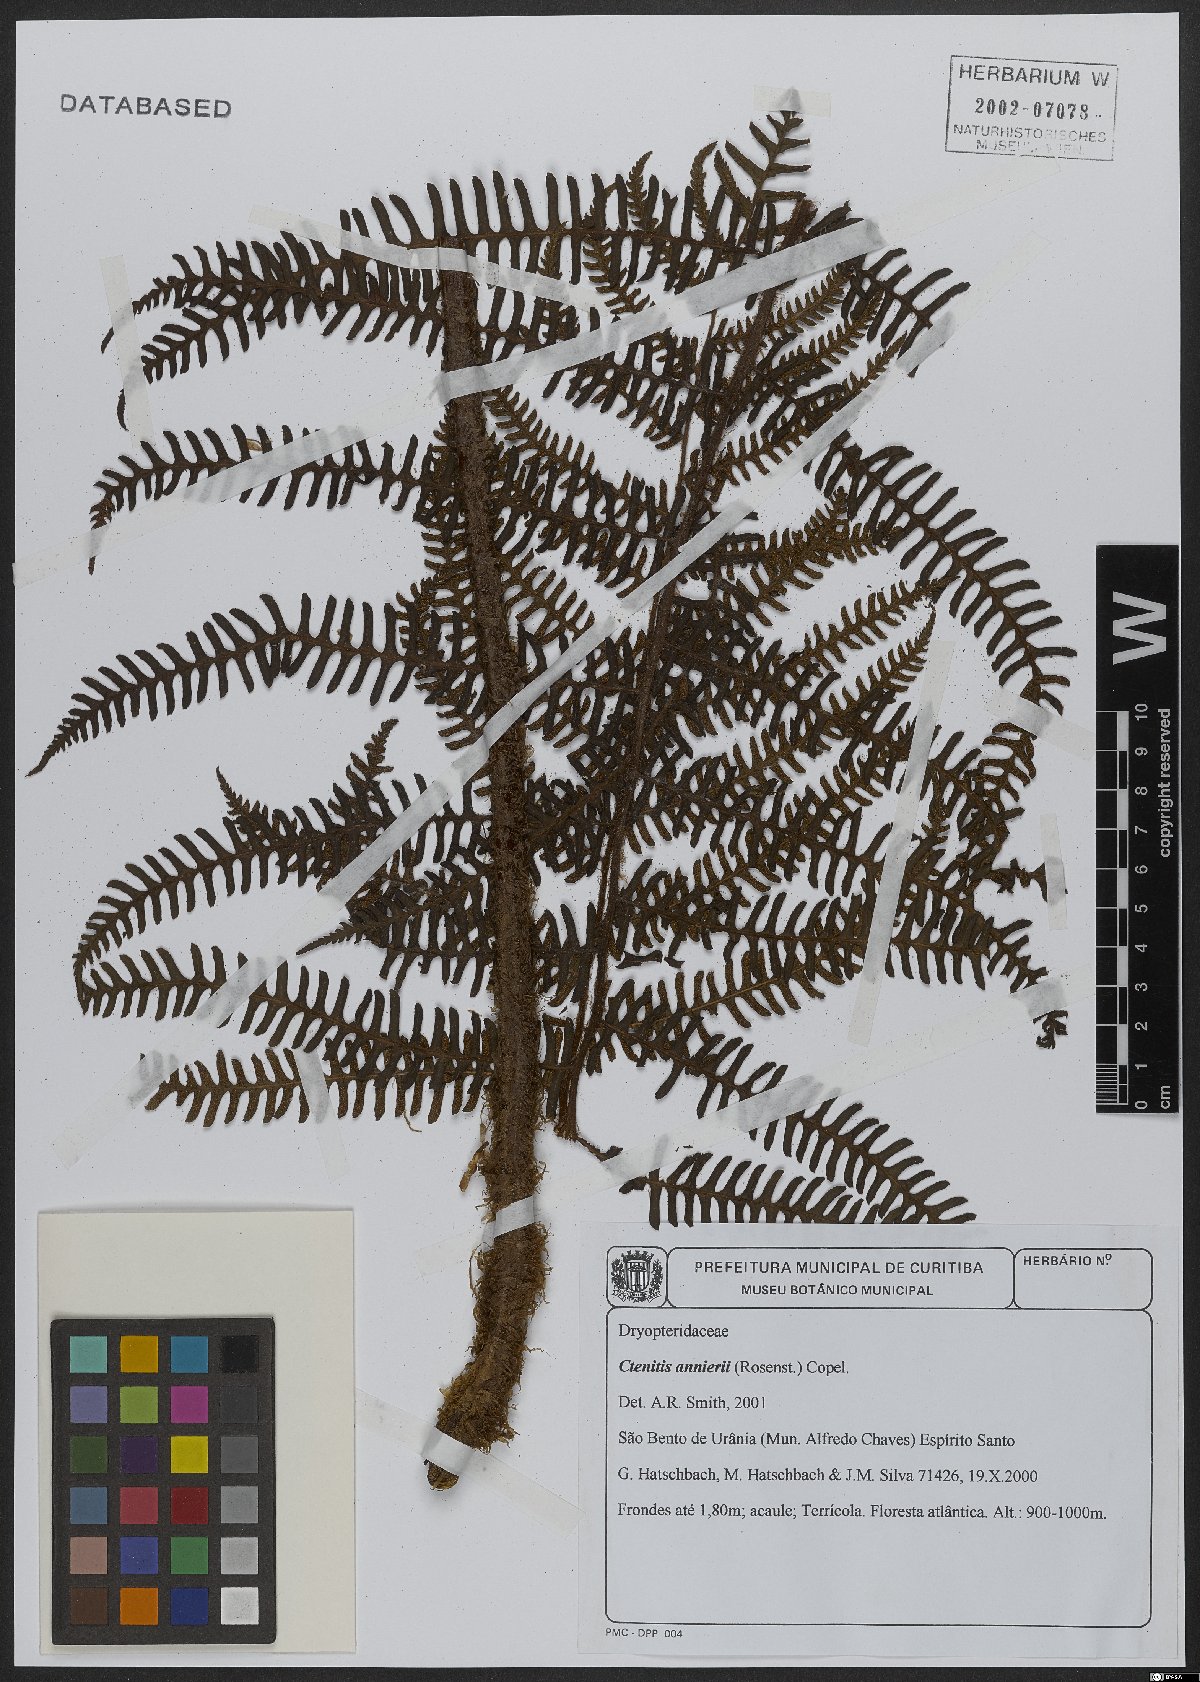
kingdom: Plantae
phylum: Tracheophyta
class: Polypodiopsida
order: Polypodiales
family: Dryopteridaceae
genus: Ctenitis
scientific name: Ctenitis anniesii
